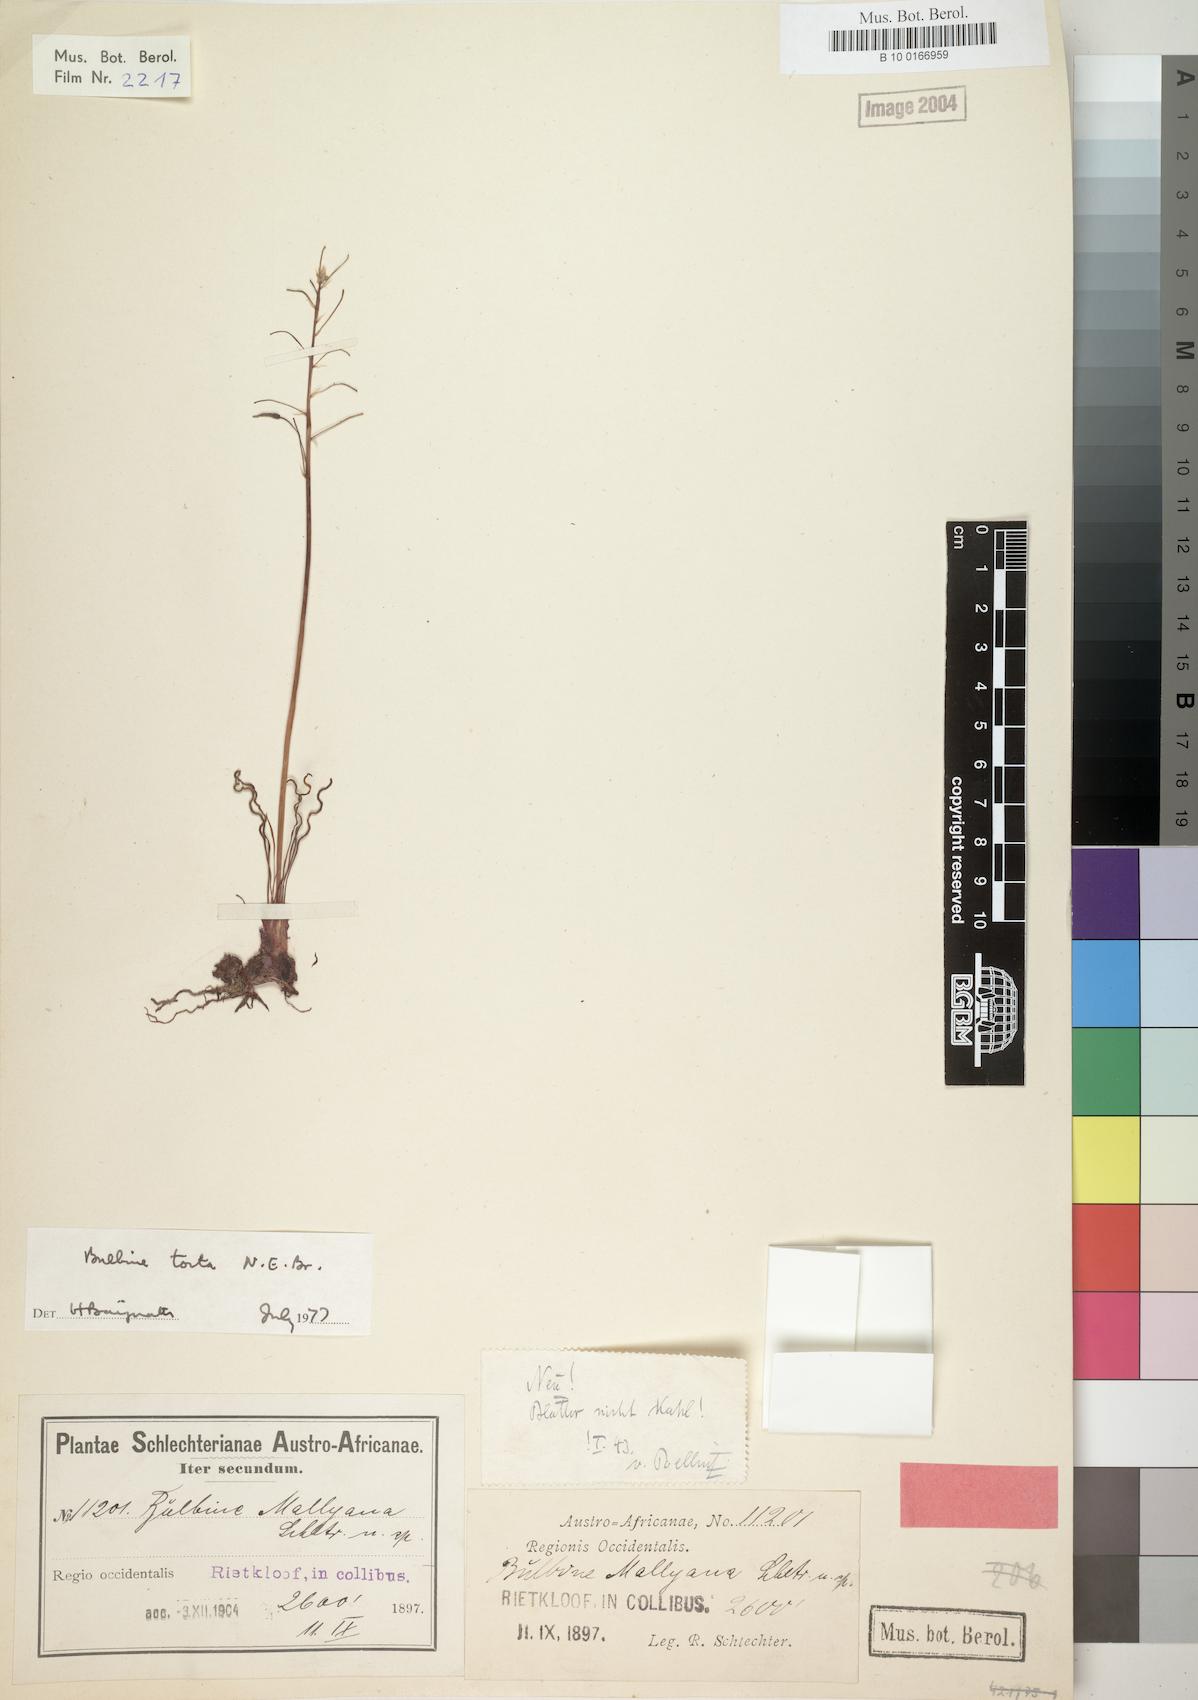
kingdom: Plantae
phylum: Tracheophyta
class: Liliopsida
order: Asparagales
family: Asphodelaceae
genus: Bulbine
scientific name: Bulbine torta
